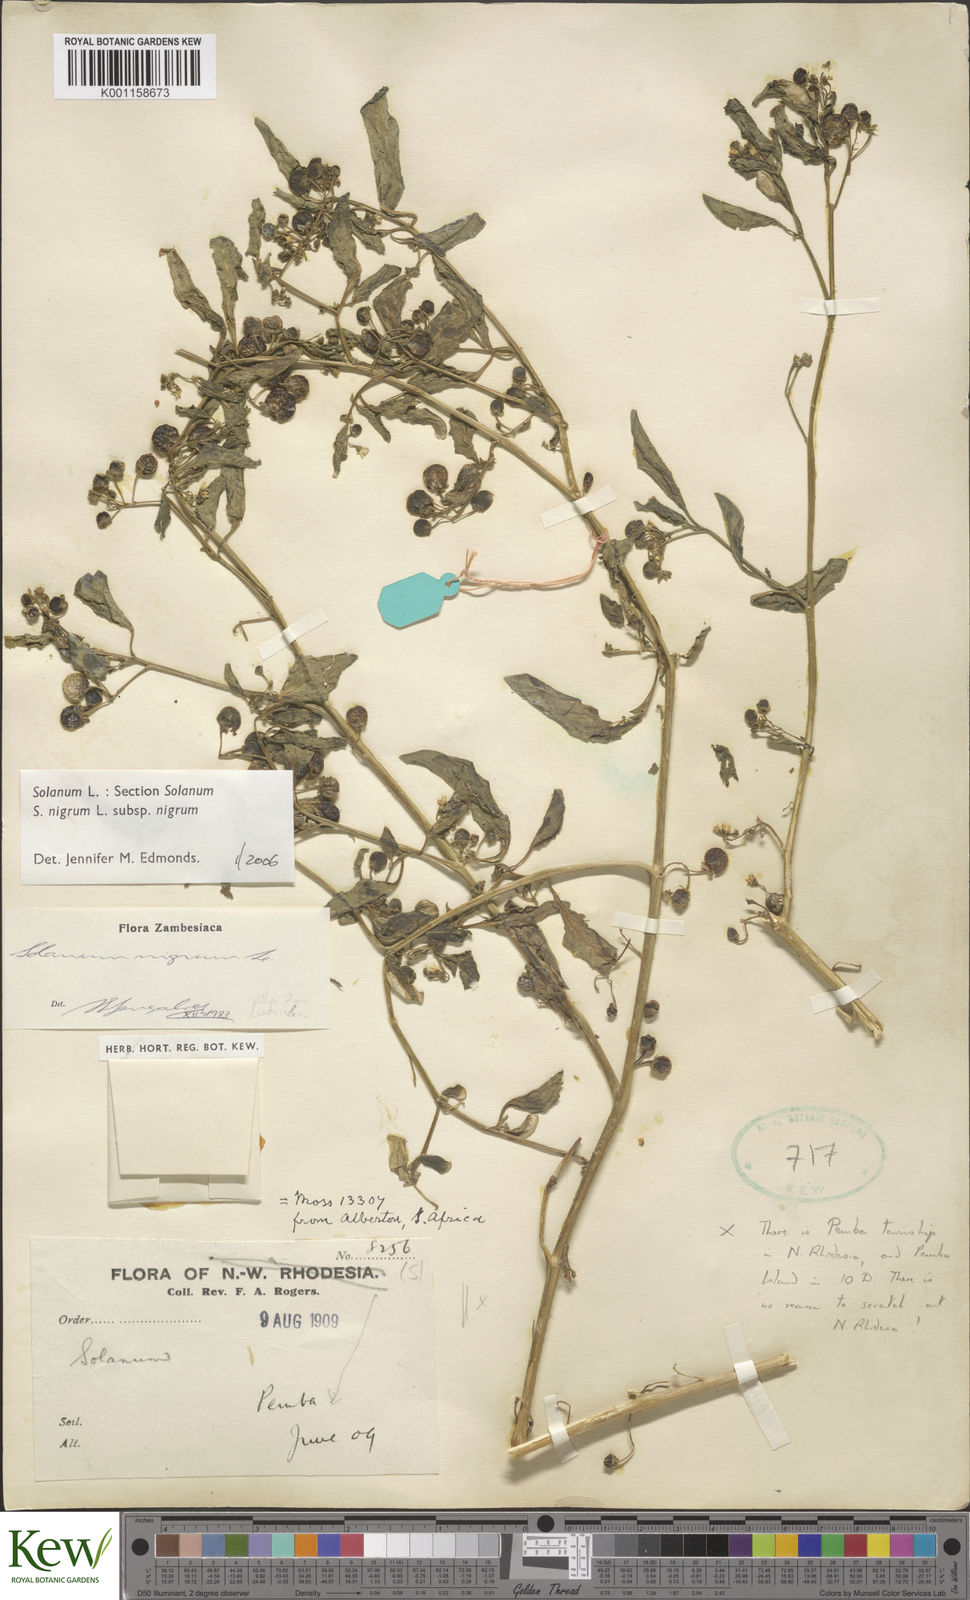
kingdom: Plantae
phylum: Tracheophyta
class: Magnoliopsida
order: Solanales
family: Solanaceae
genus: Solanum
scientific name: Solanum nigrum
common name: Black nightshade
